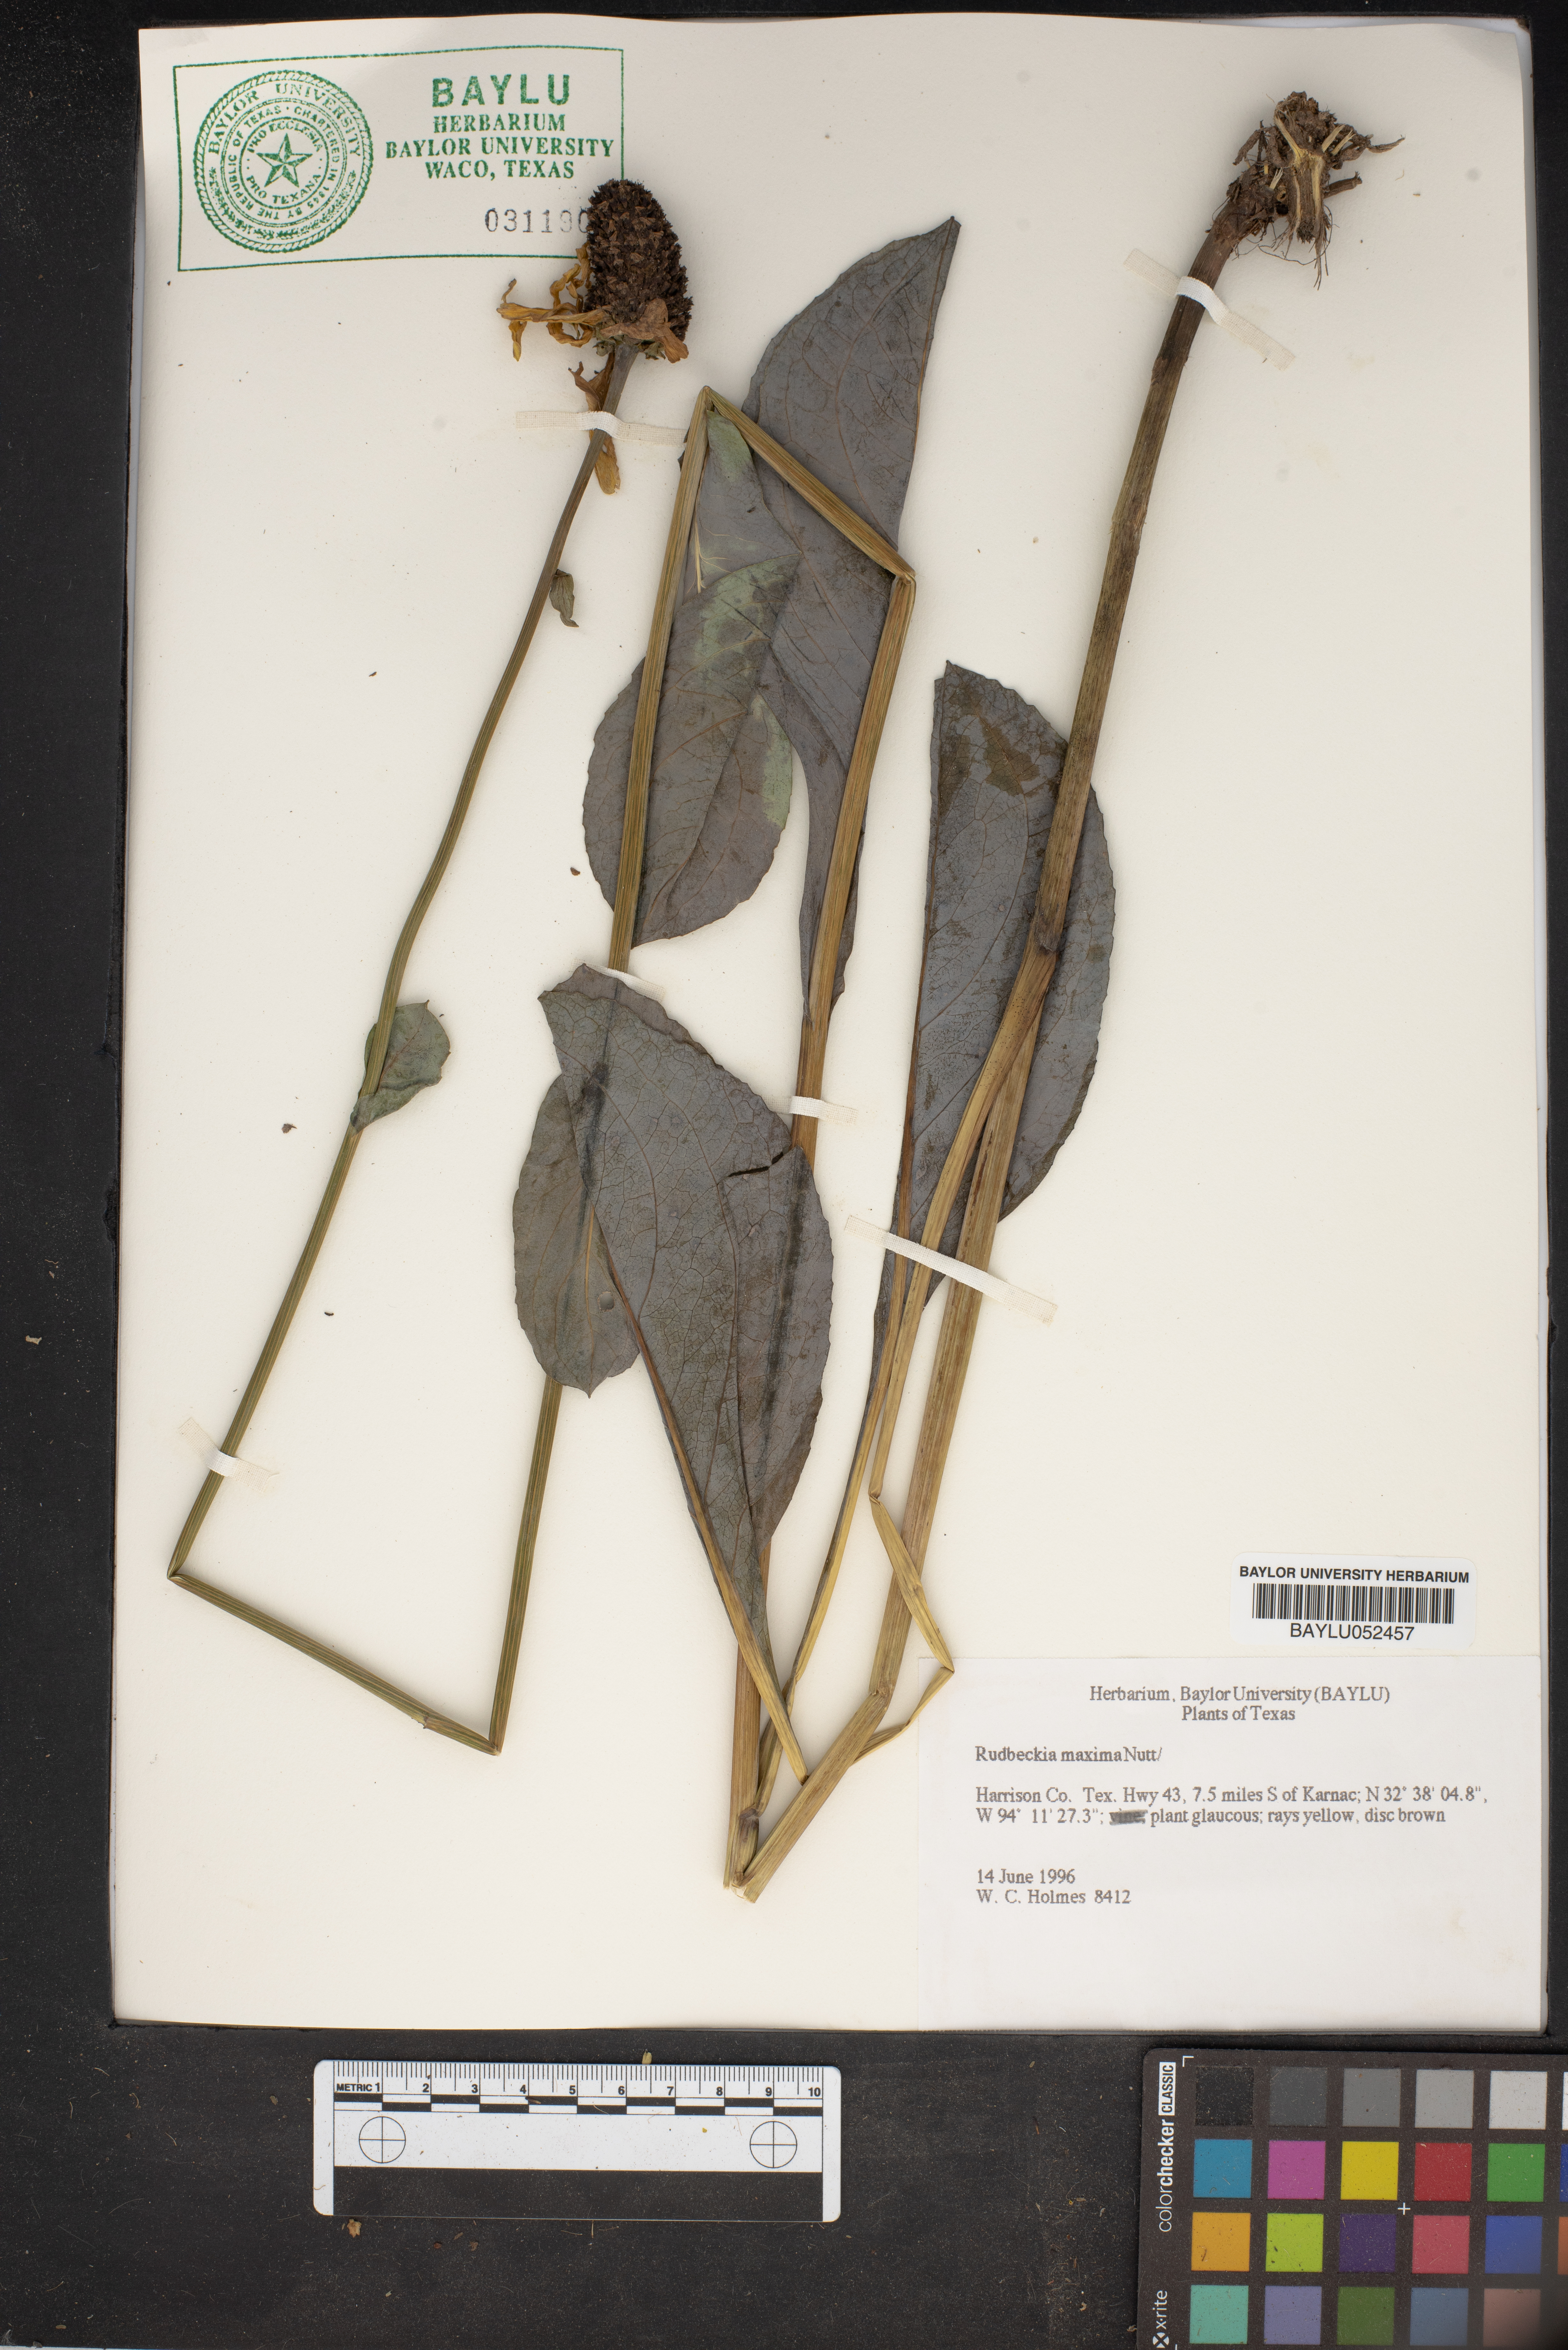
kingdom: Plantae
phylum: Tracheophyta
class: Magnoliopsida
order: Asterales
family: Asteraceae
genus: Rudbeckia
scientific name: Rudbeckia maxima
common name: Cabbage coneflower
